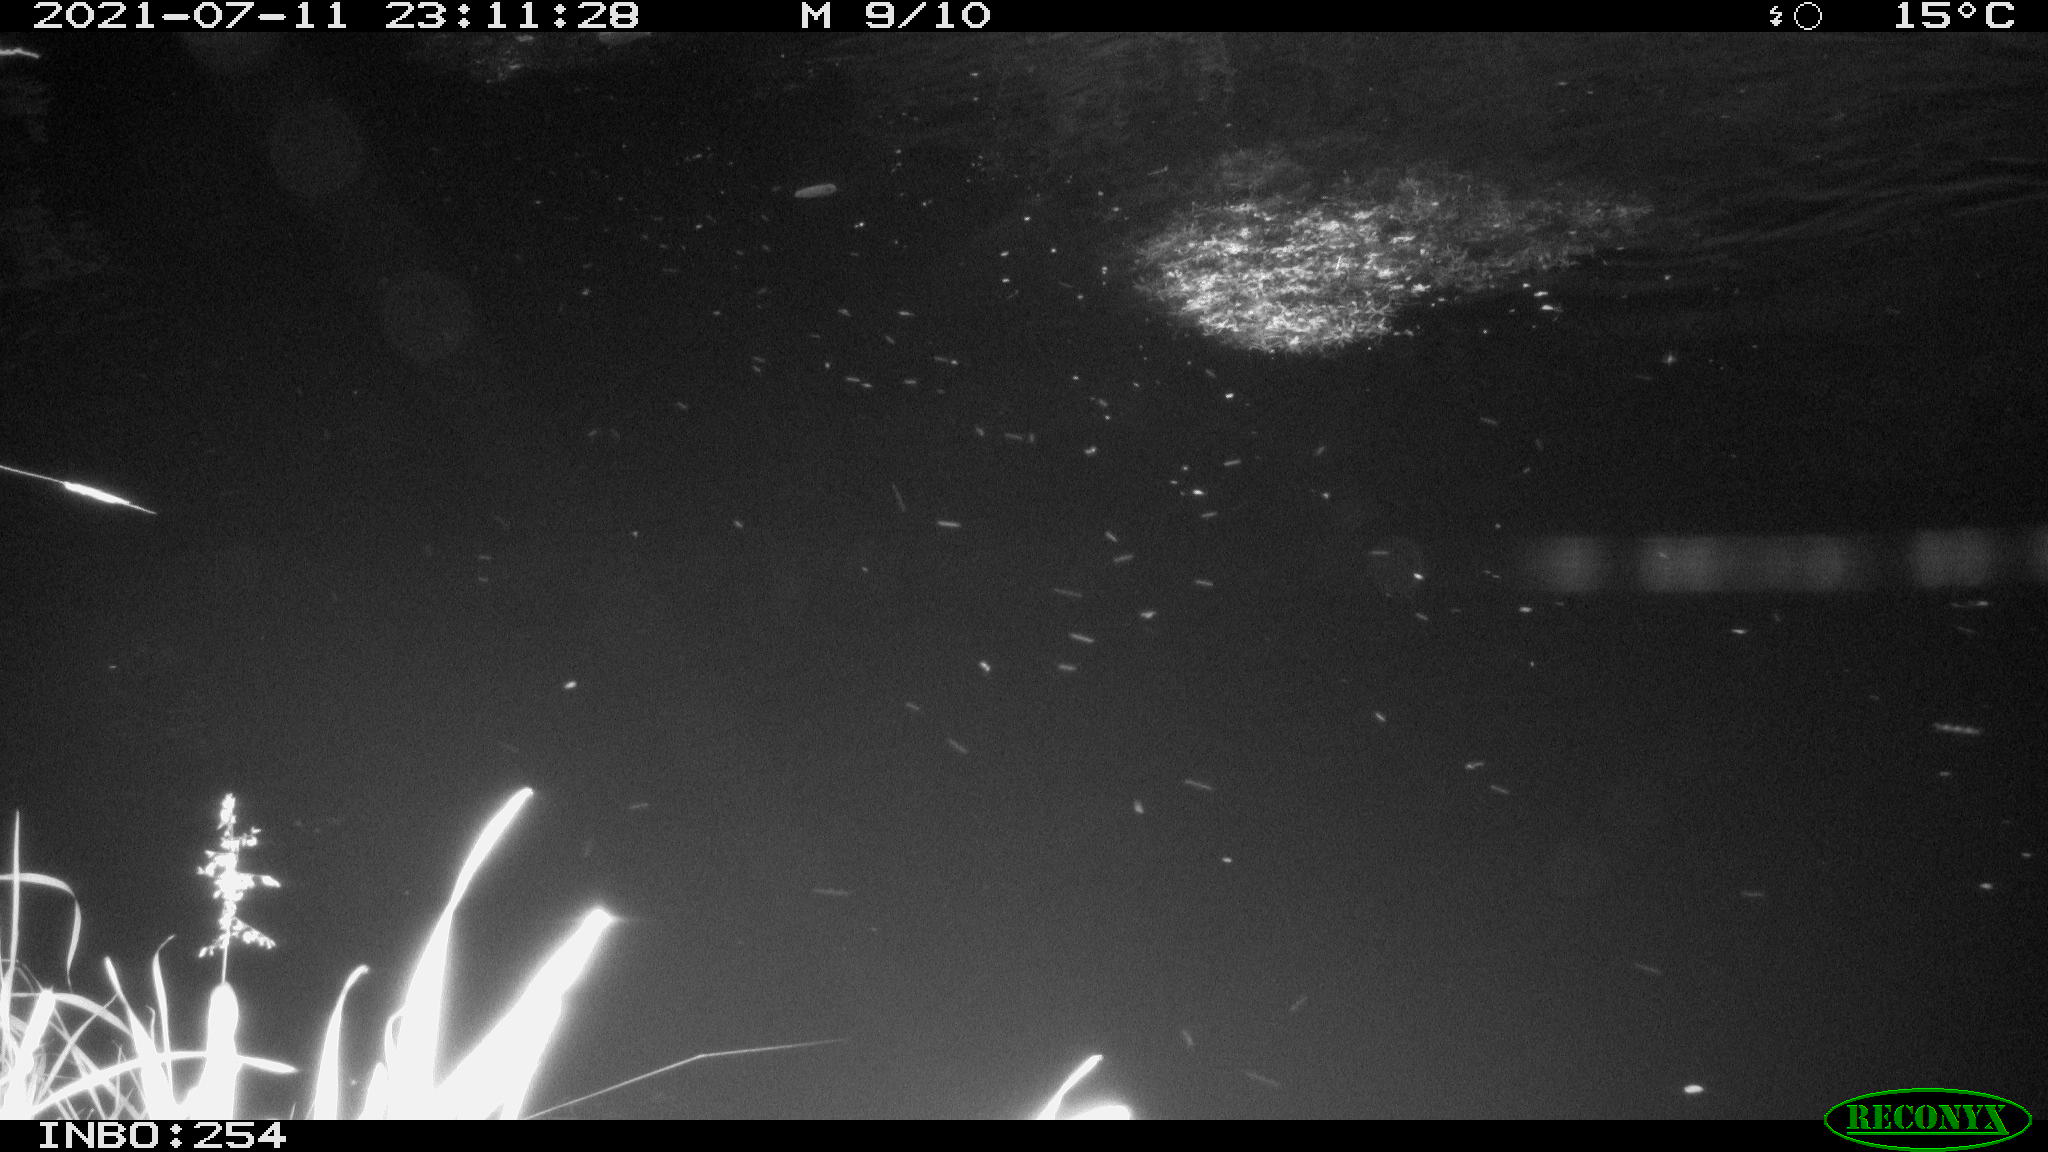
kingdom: Animalia
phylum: Chordata
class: Aves
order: Anseriformes
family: Anatidae
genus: Anas
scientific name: Anas platyrhynchos
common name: Mallard
